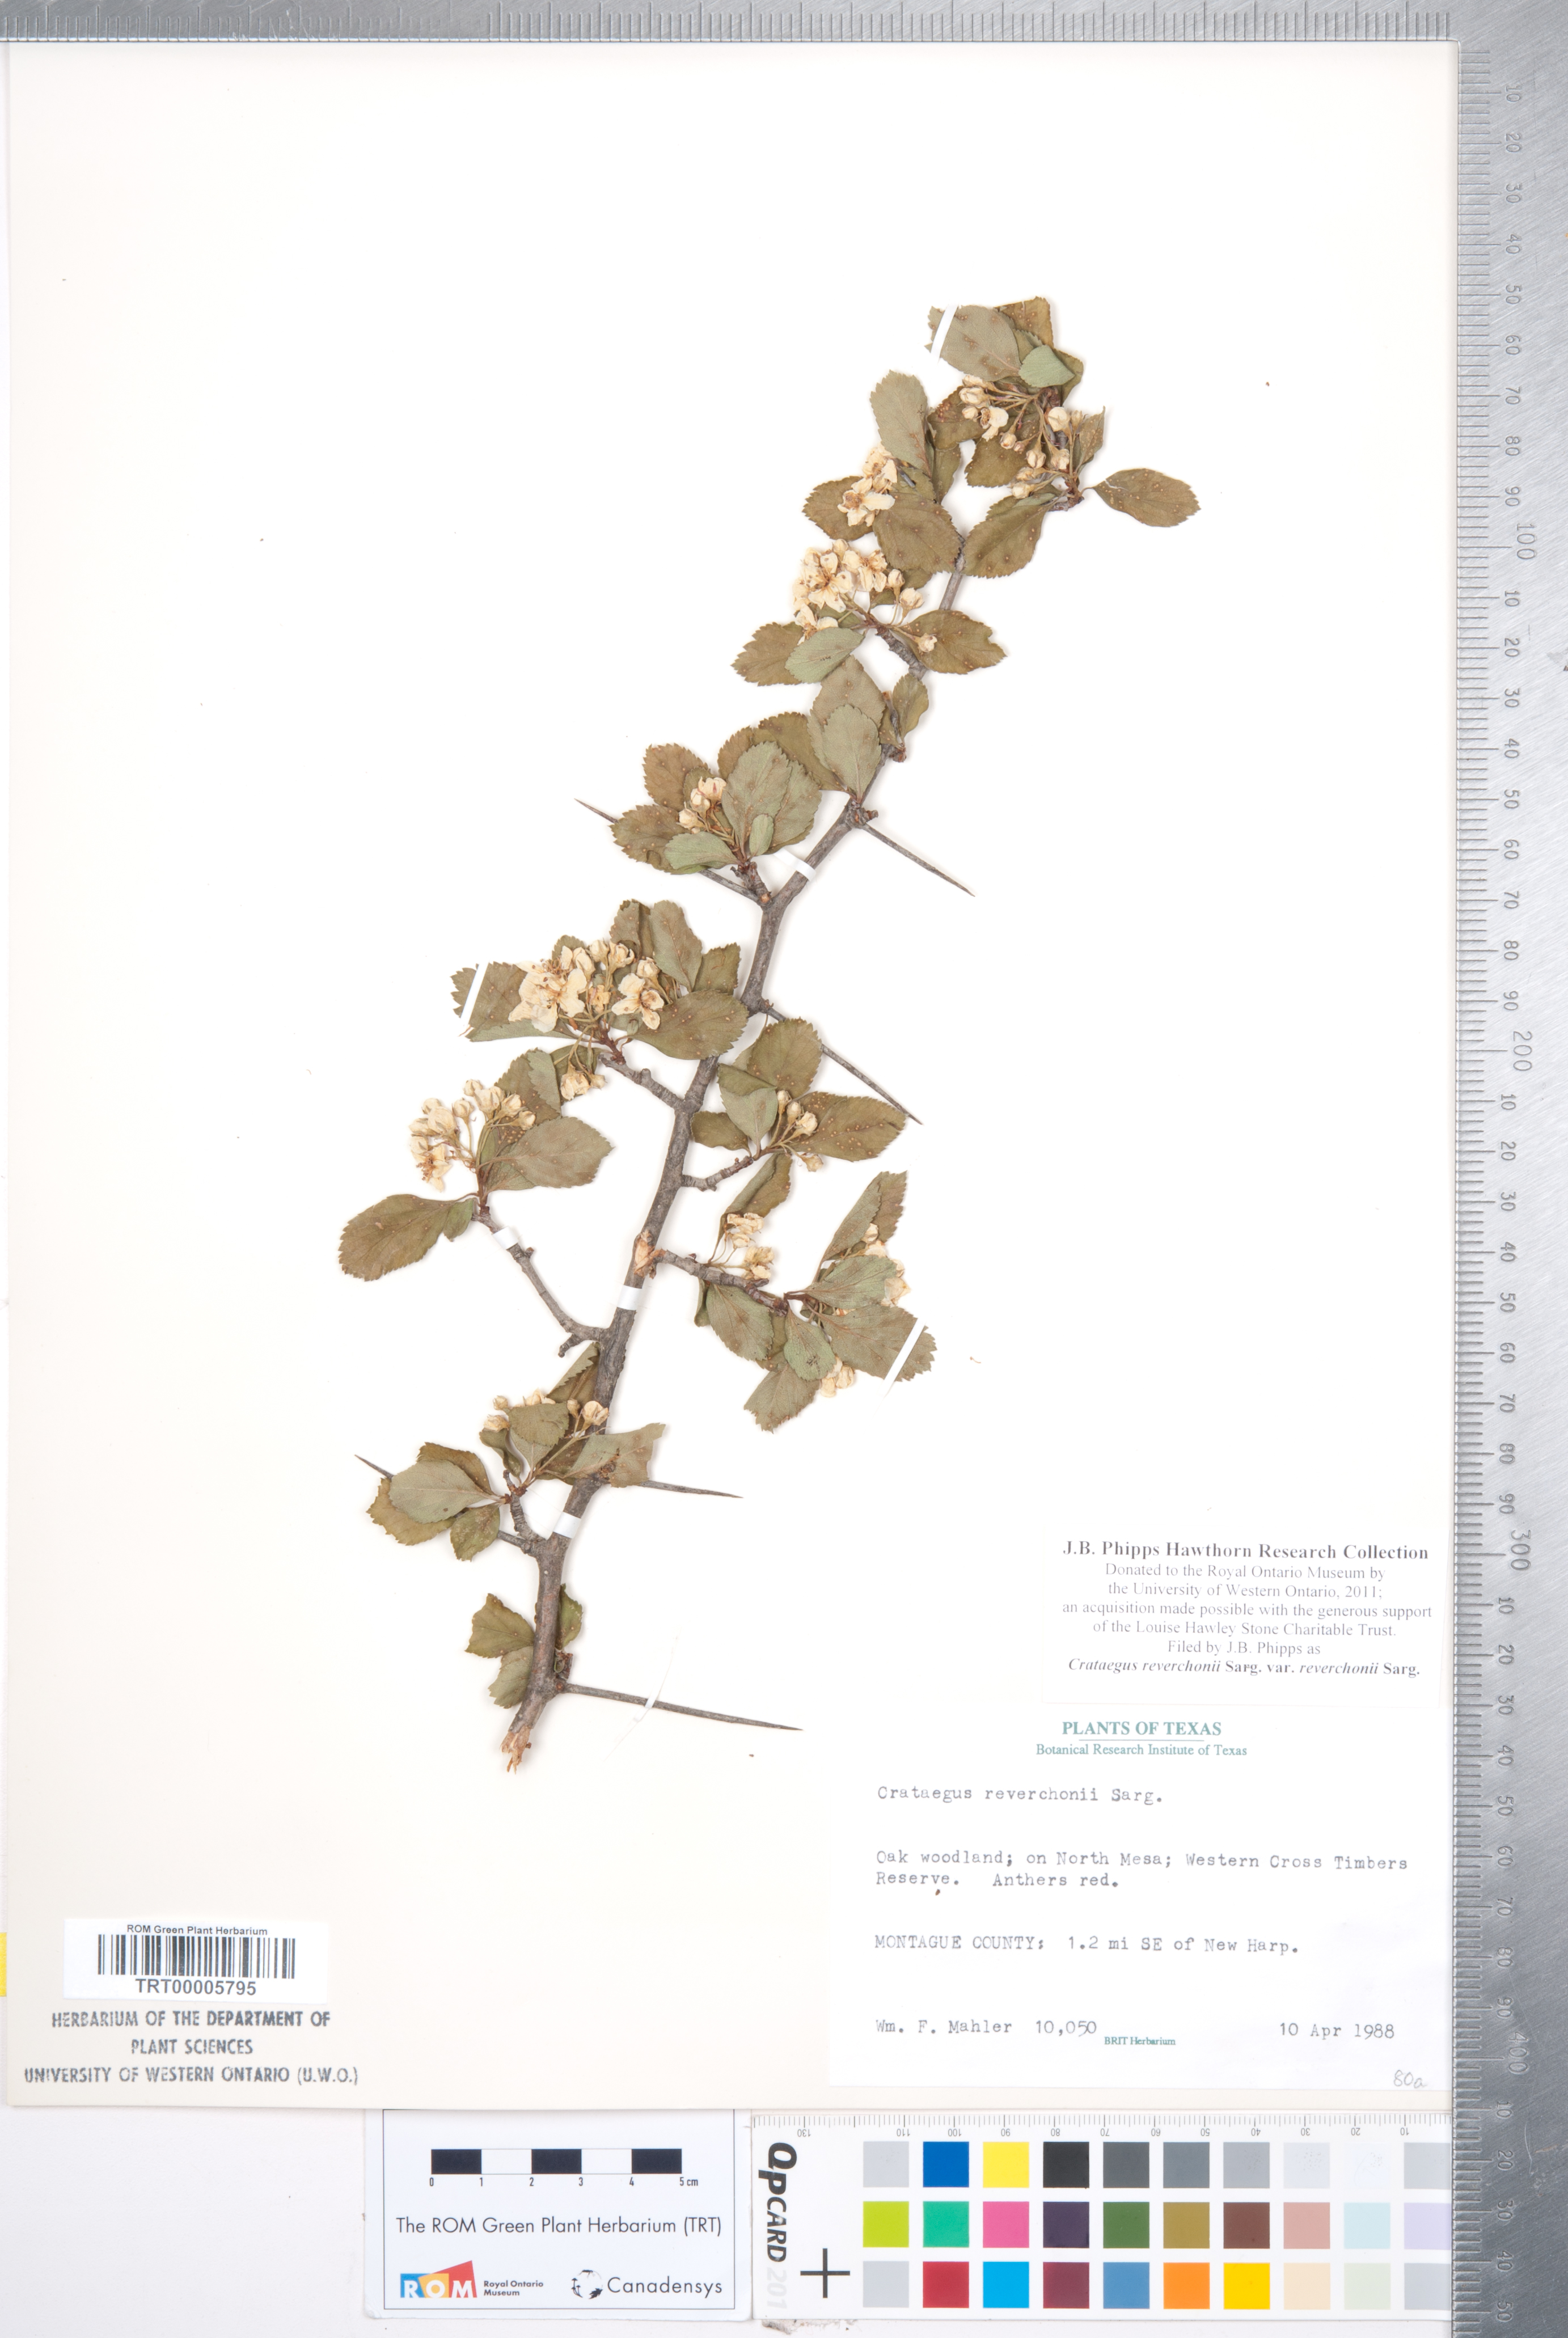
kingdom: Plantae
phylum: Tracheophyta
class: Magnoliopsida
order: Rosales
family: Rosaceae
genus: Crataegus
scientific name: Crataegus reverchonii
